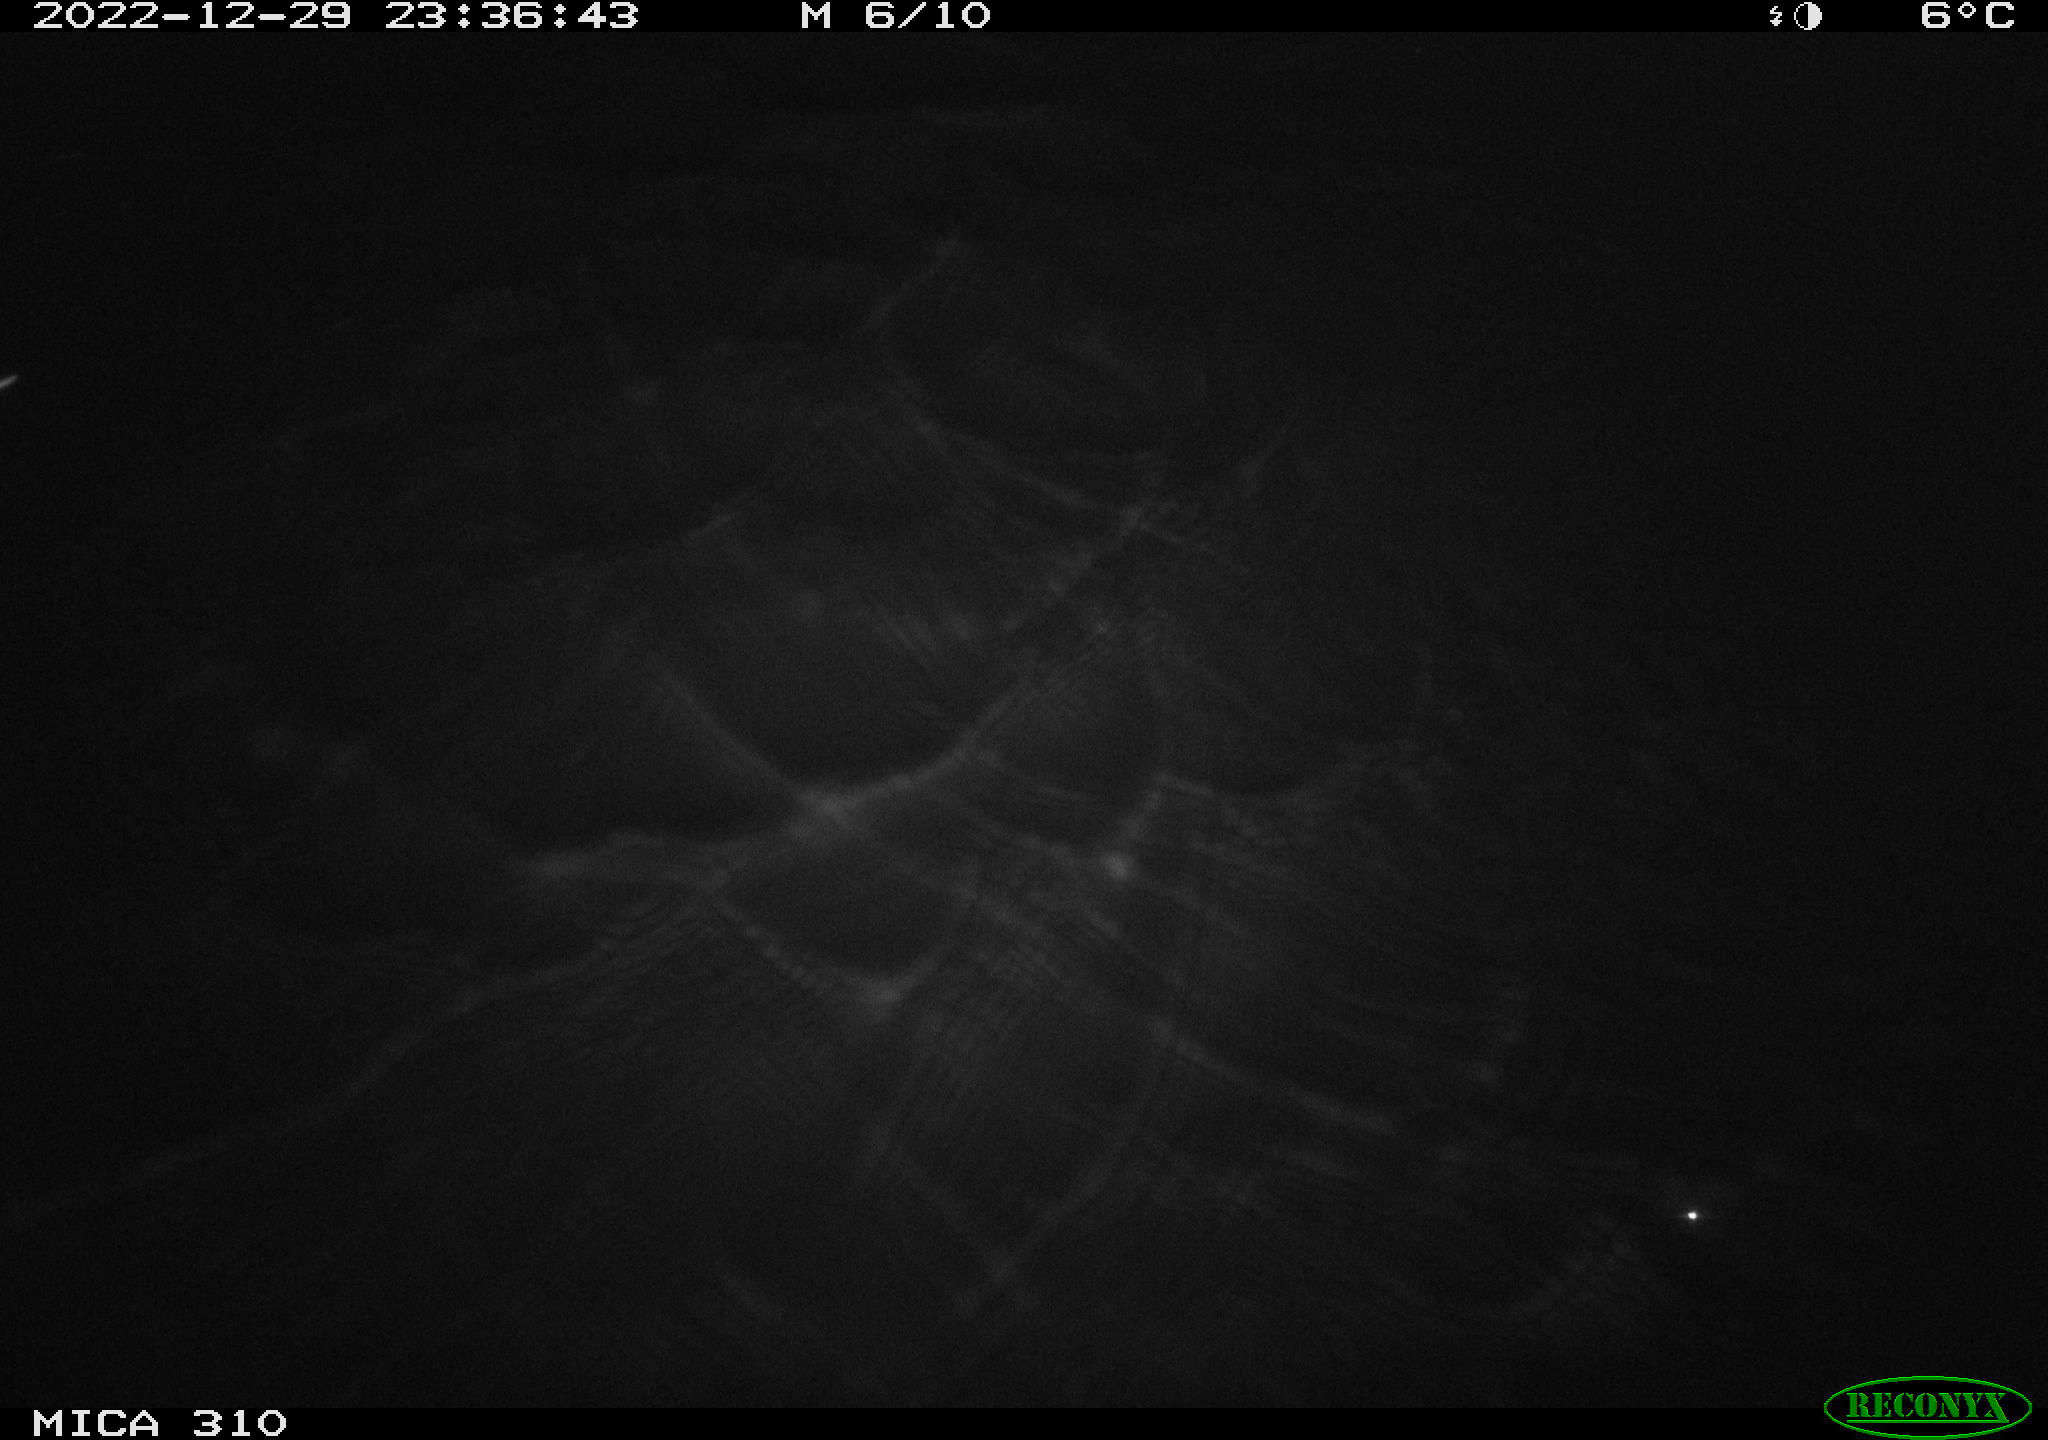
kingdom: Animalia
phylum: Chordata
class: Mammalia
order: Rodentia
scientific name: Rodentia
